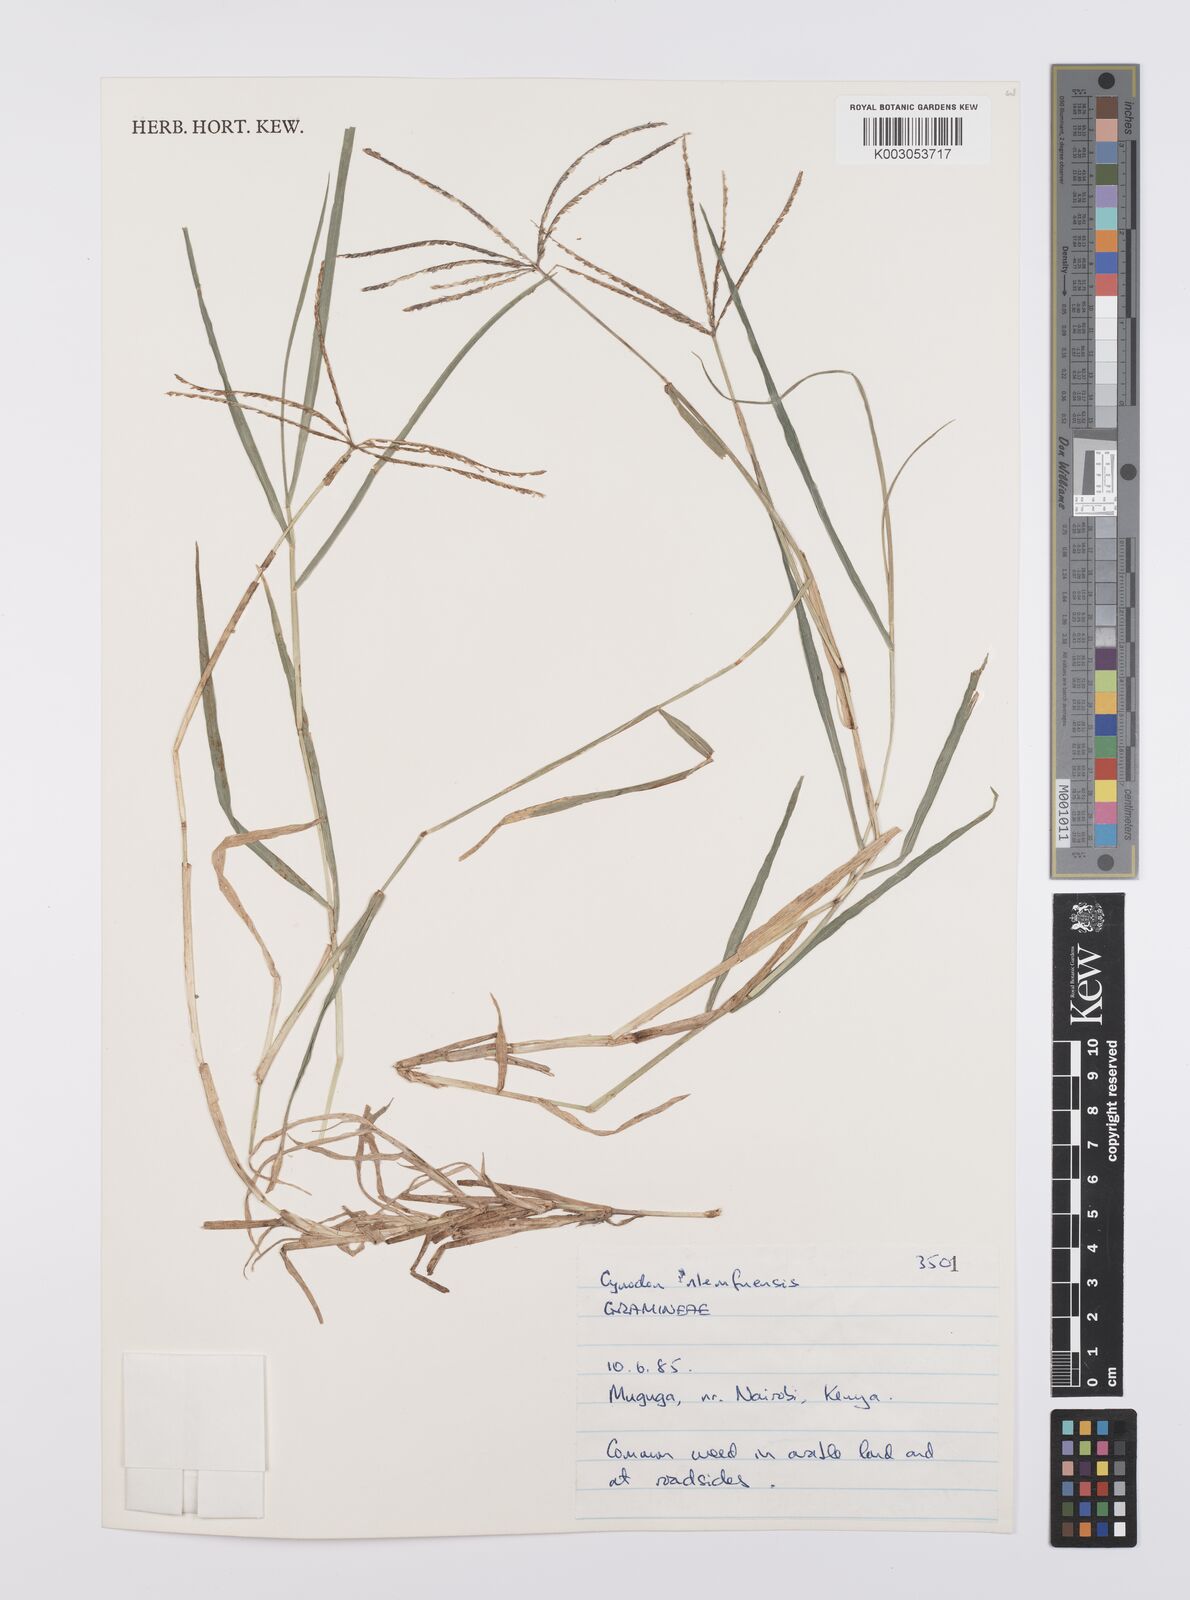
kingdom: Plantae
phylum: Tracheophyta
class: Liliopsida
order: Poales
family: Poaceae
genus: Cynodon
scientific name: Cynodon dactylon
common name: Bermuda grass
